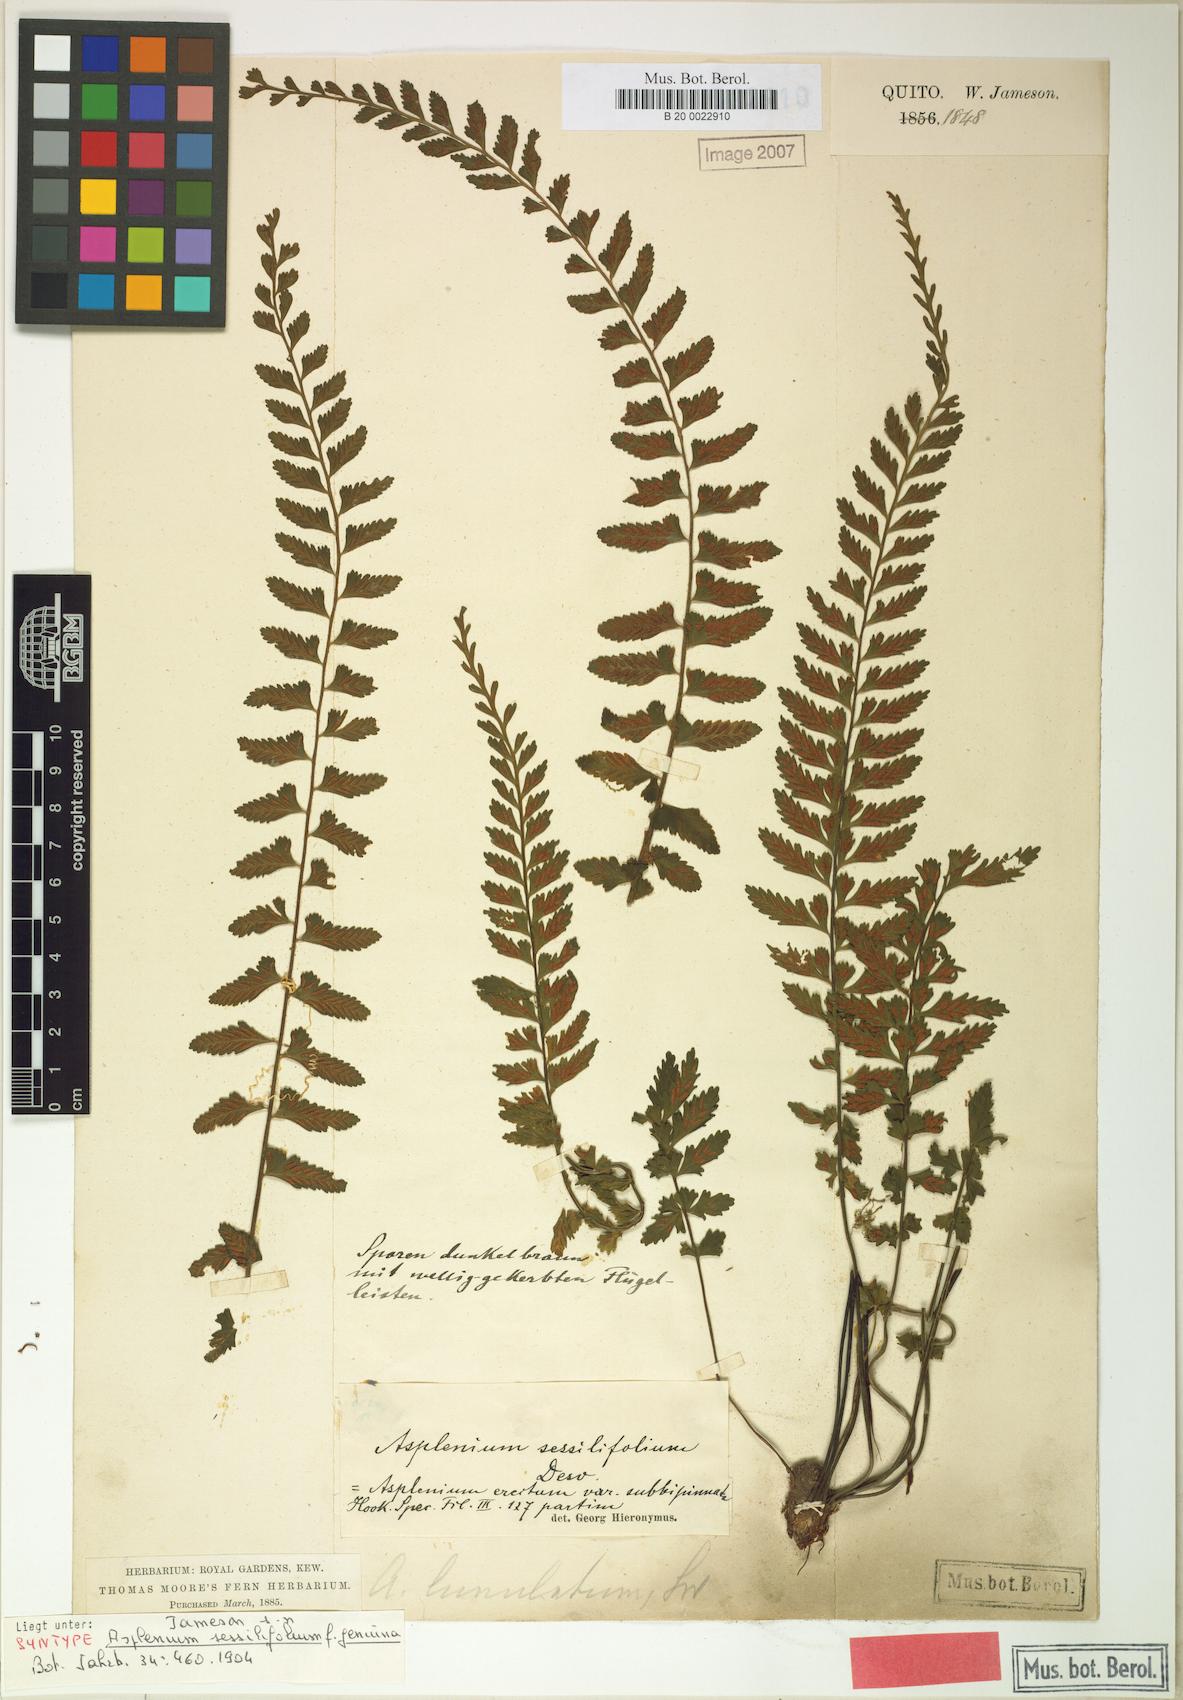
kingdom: Plantae
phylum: Tracheophyta
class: Polypodiopsida
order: Polypodiales
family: Aspleniaceae
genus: Asplenium
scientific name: Asplenium sessilifolium
